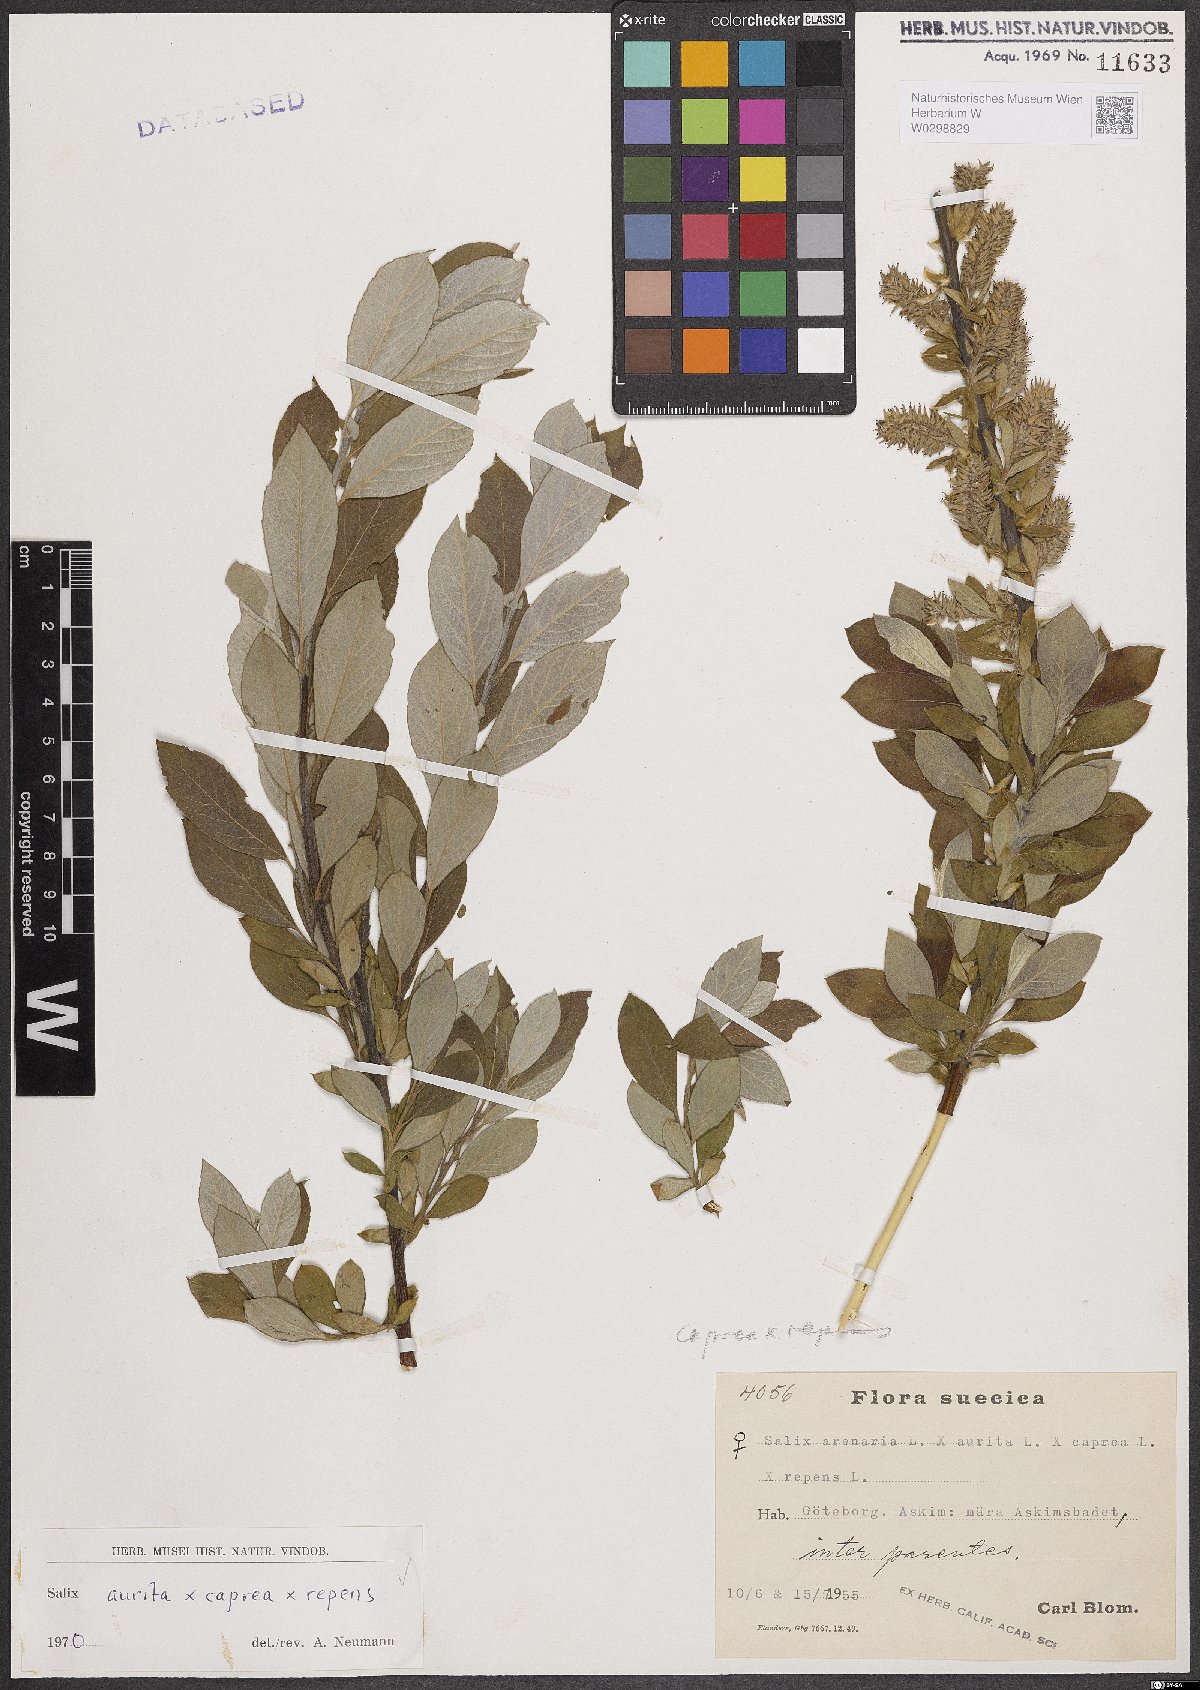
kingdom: Plantae
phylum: Tracheophyta
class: Magnoliopsida
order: Malpighiales
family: Salicaceae
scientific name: Salicaceae
